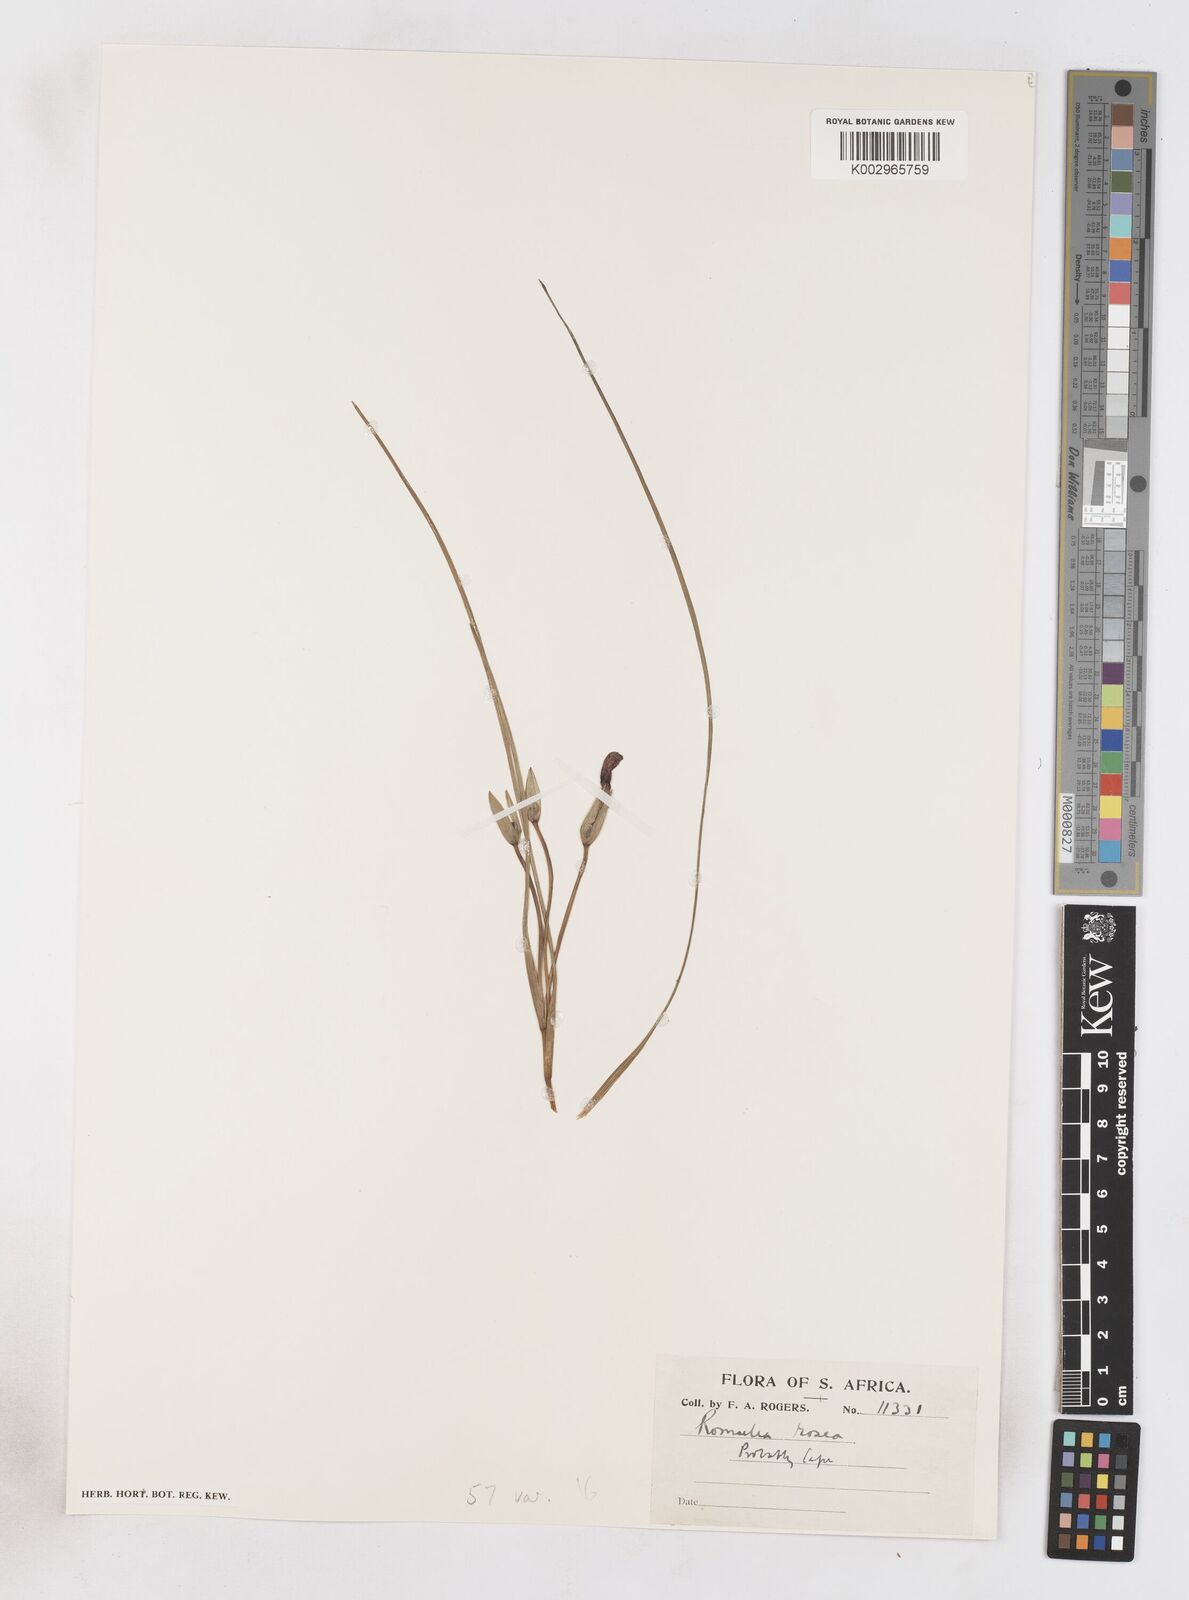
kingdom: Plantae
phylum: Tracheophyta
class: Liliopsida
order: Asparagales
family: Iridaceae
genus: Romulea
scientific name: Romulea rosea
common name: Oniongrass
